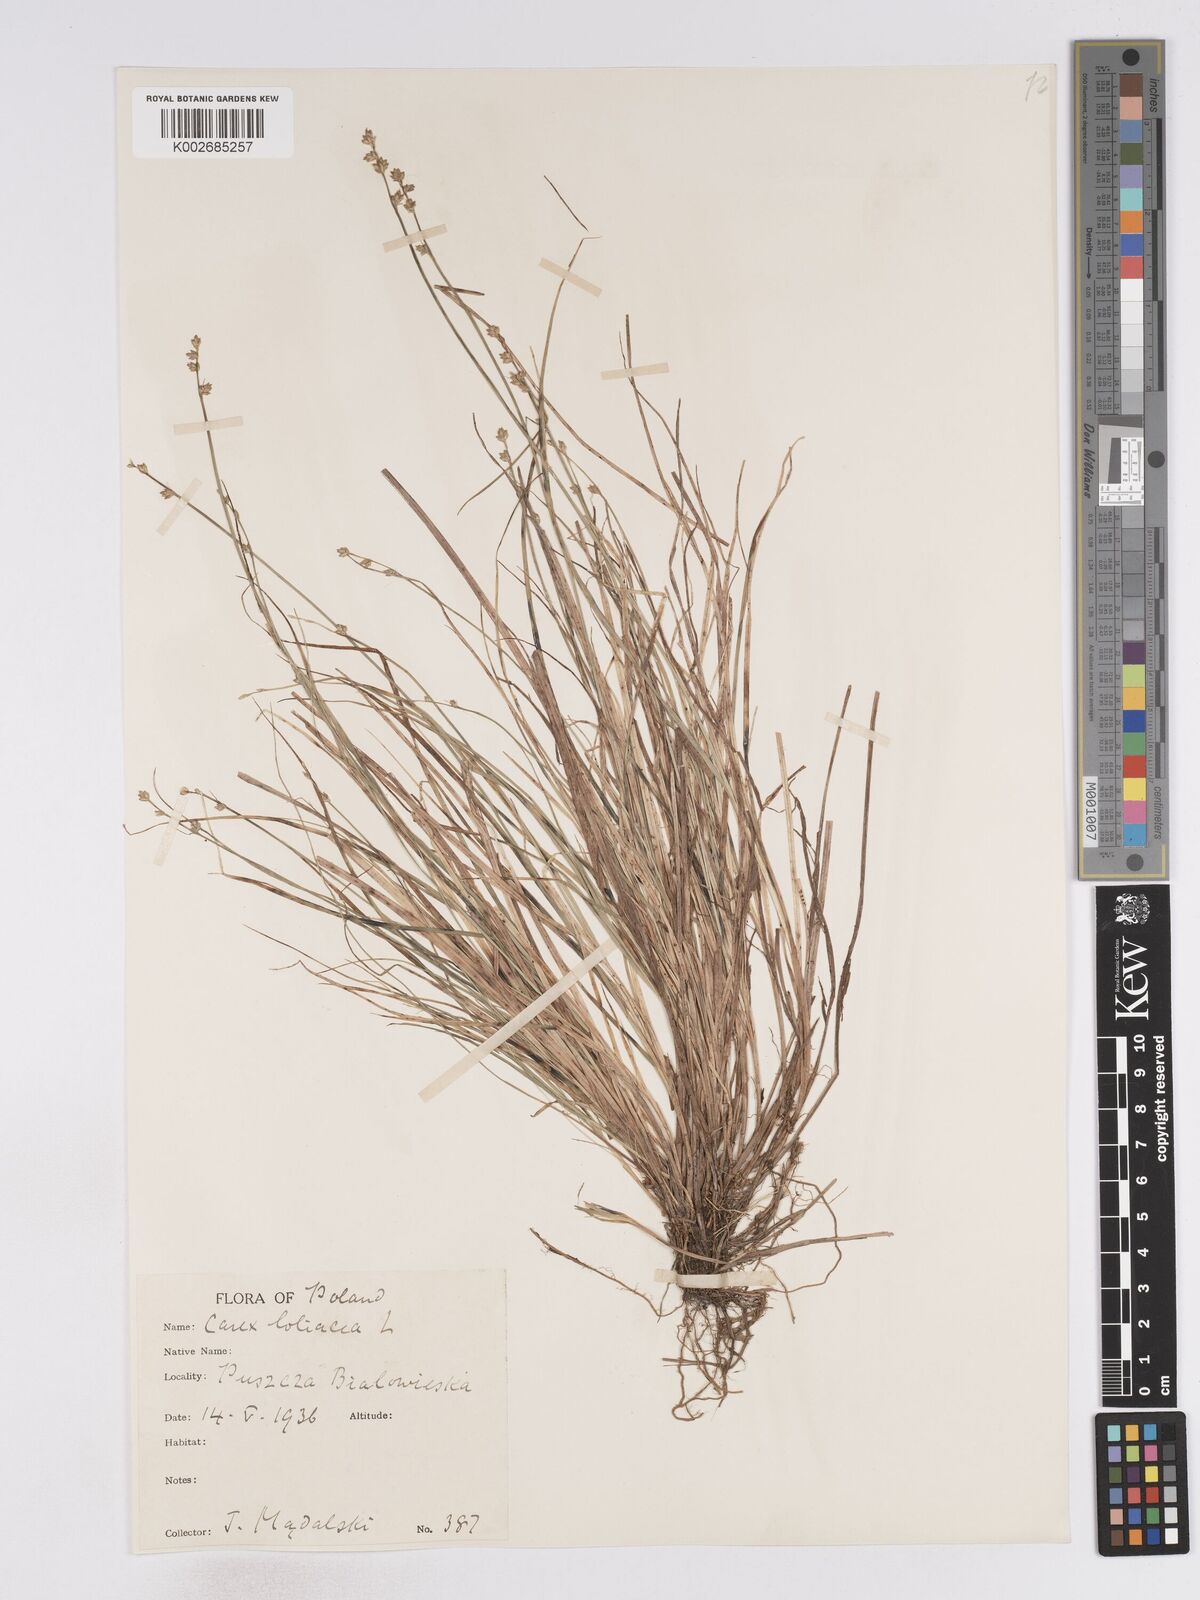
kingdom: Plantae
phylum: Tracheophyta
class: Liliopsida
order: Poales
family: Cyperaceae
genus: Carex
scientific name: Carex loliacea
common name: Ryegrass sedge
